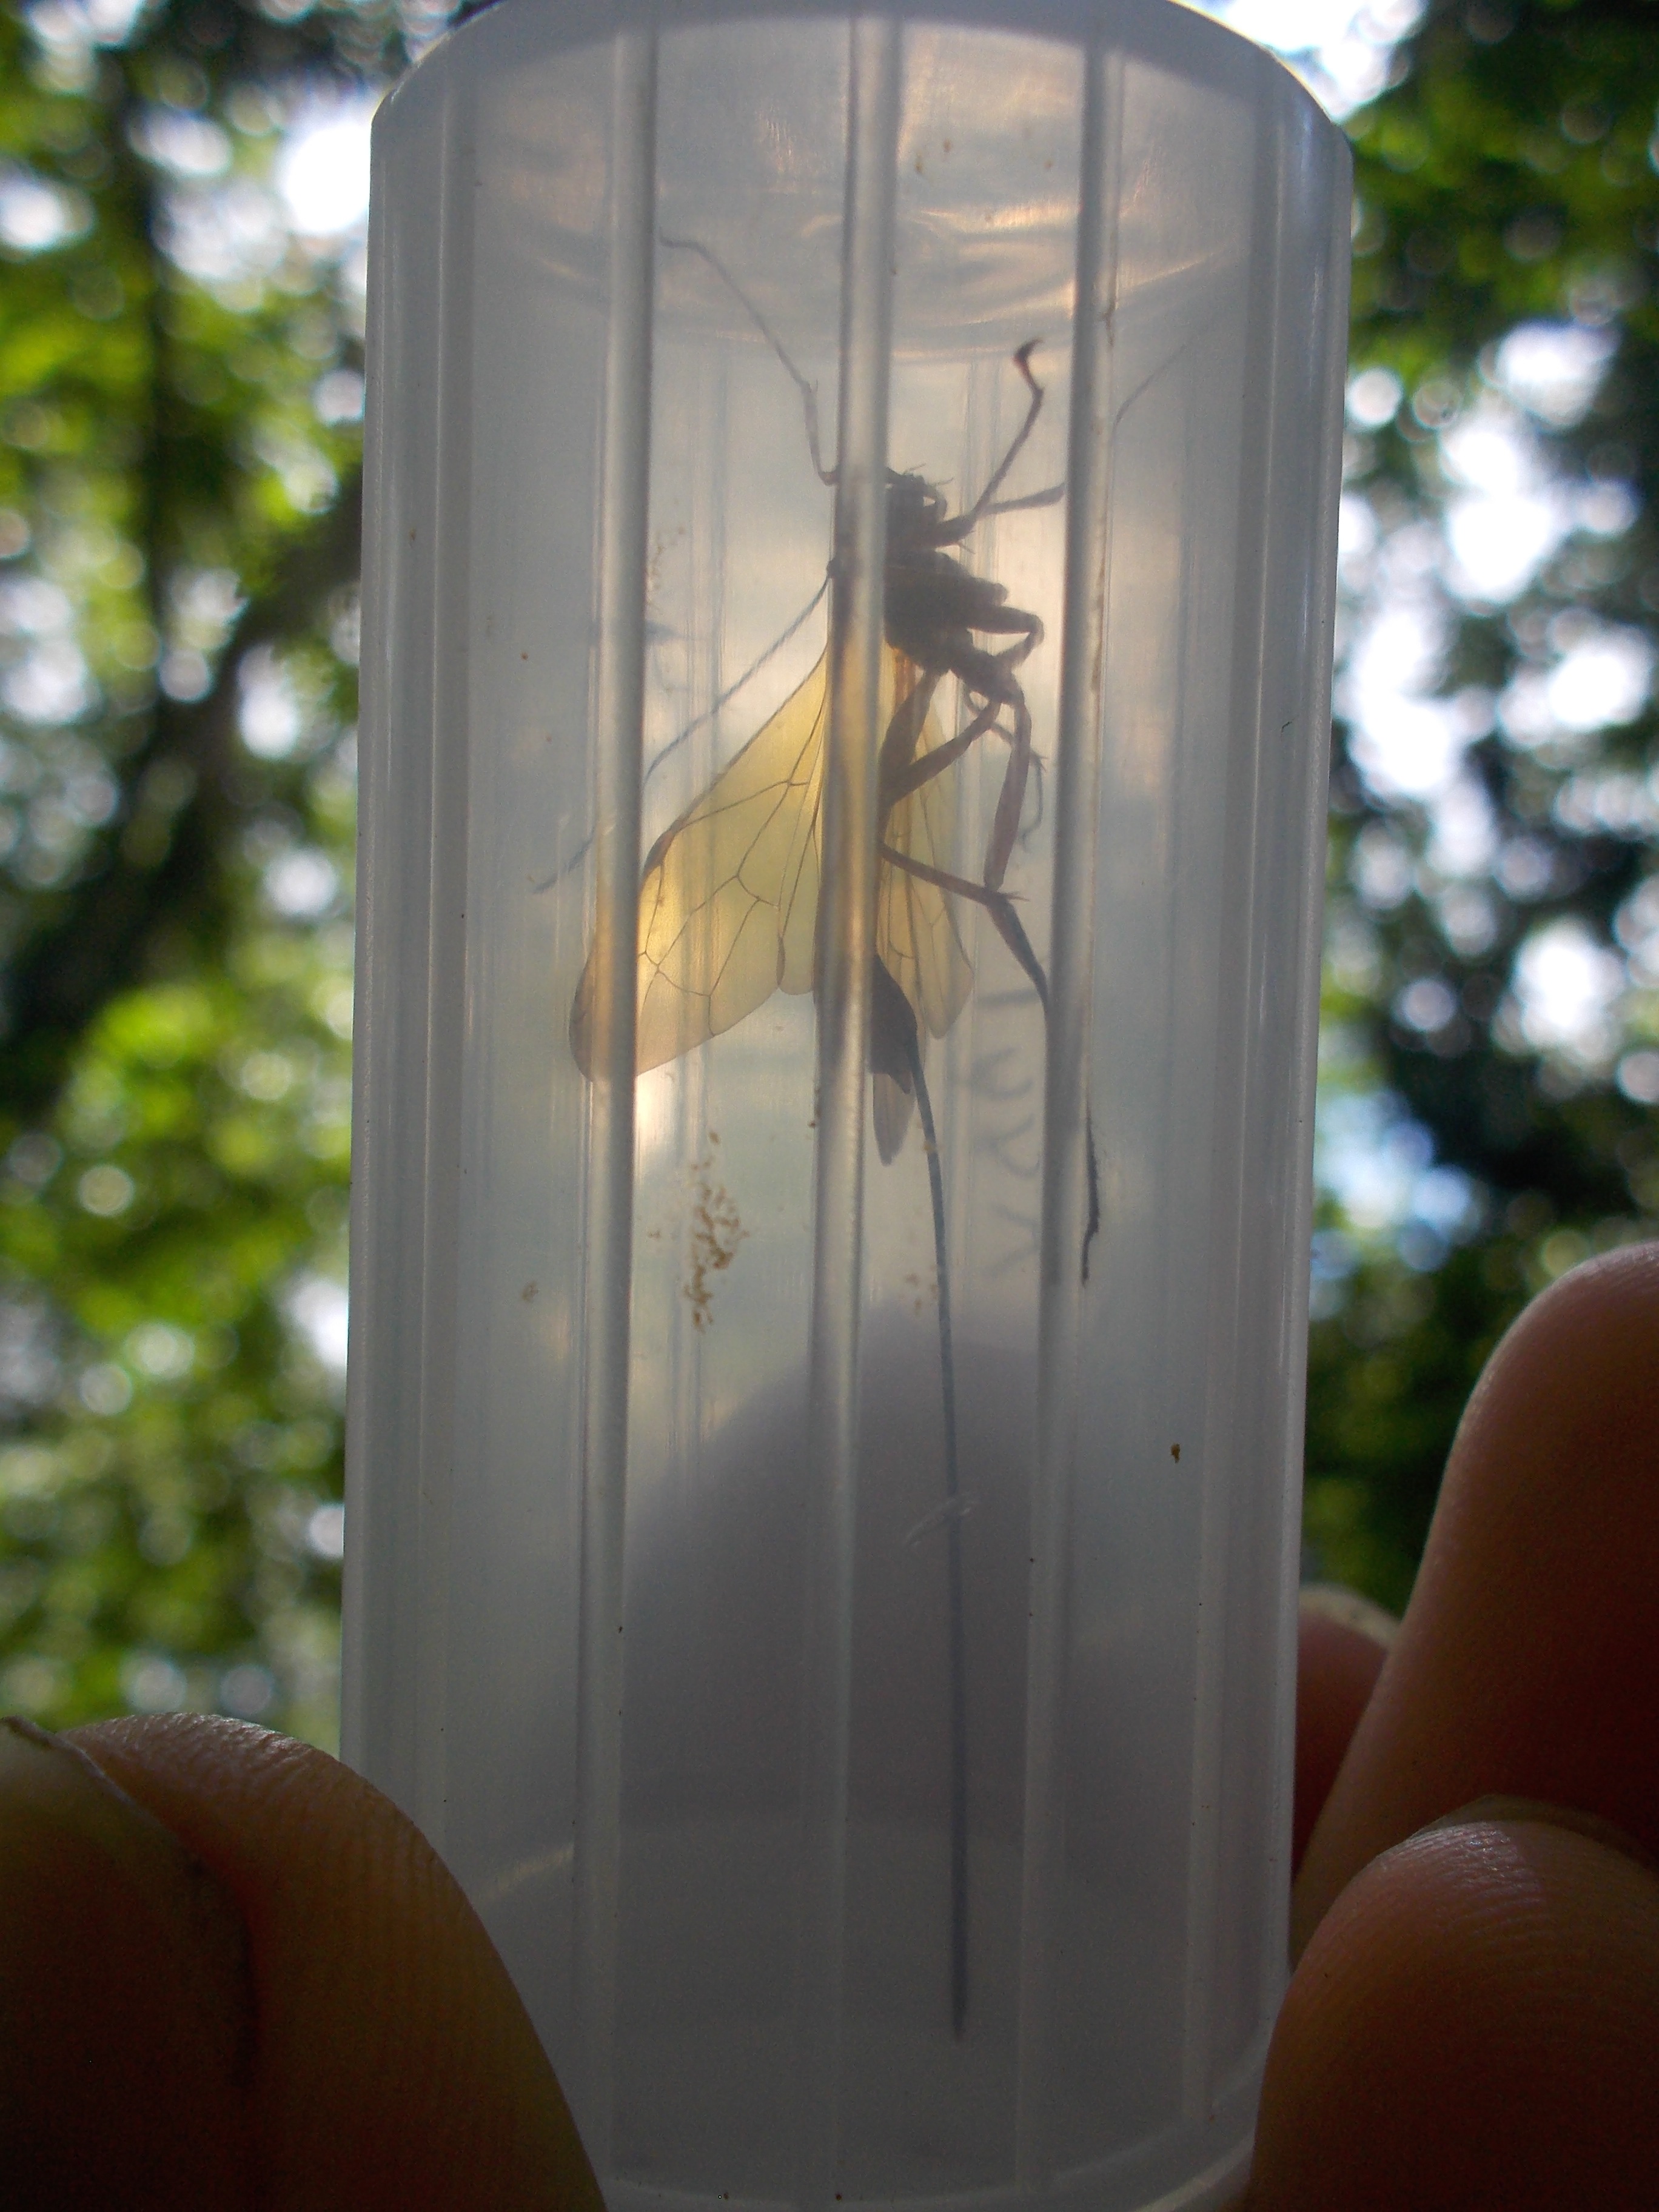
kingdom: Animalia
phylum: Arthropoda
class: Insecta
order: Hymenoptera
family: Ichneumonidae
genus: Epirhyssa
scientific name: Epirhyssa ghesquierei
